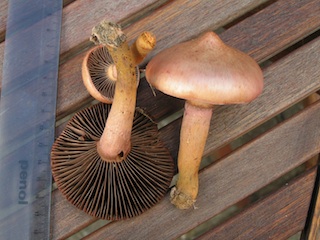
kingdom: Fungi
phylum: Basidiomycota
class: Agaricomycetes
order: Boletales
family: Gomphidiaceae
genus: Chroogomphus
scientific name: Chroogomphus rutilus
